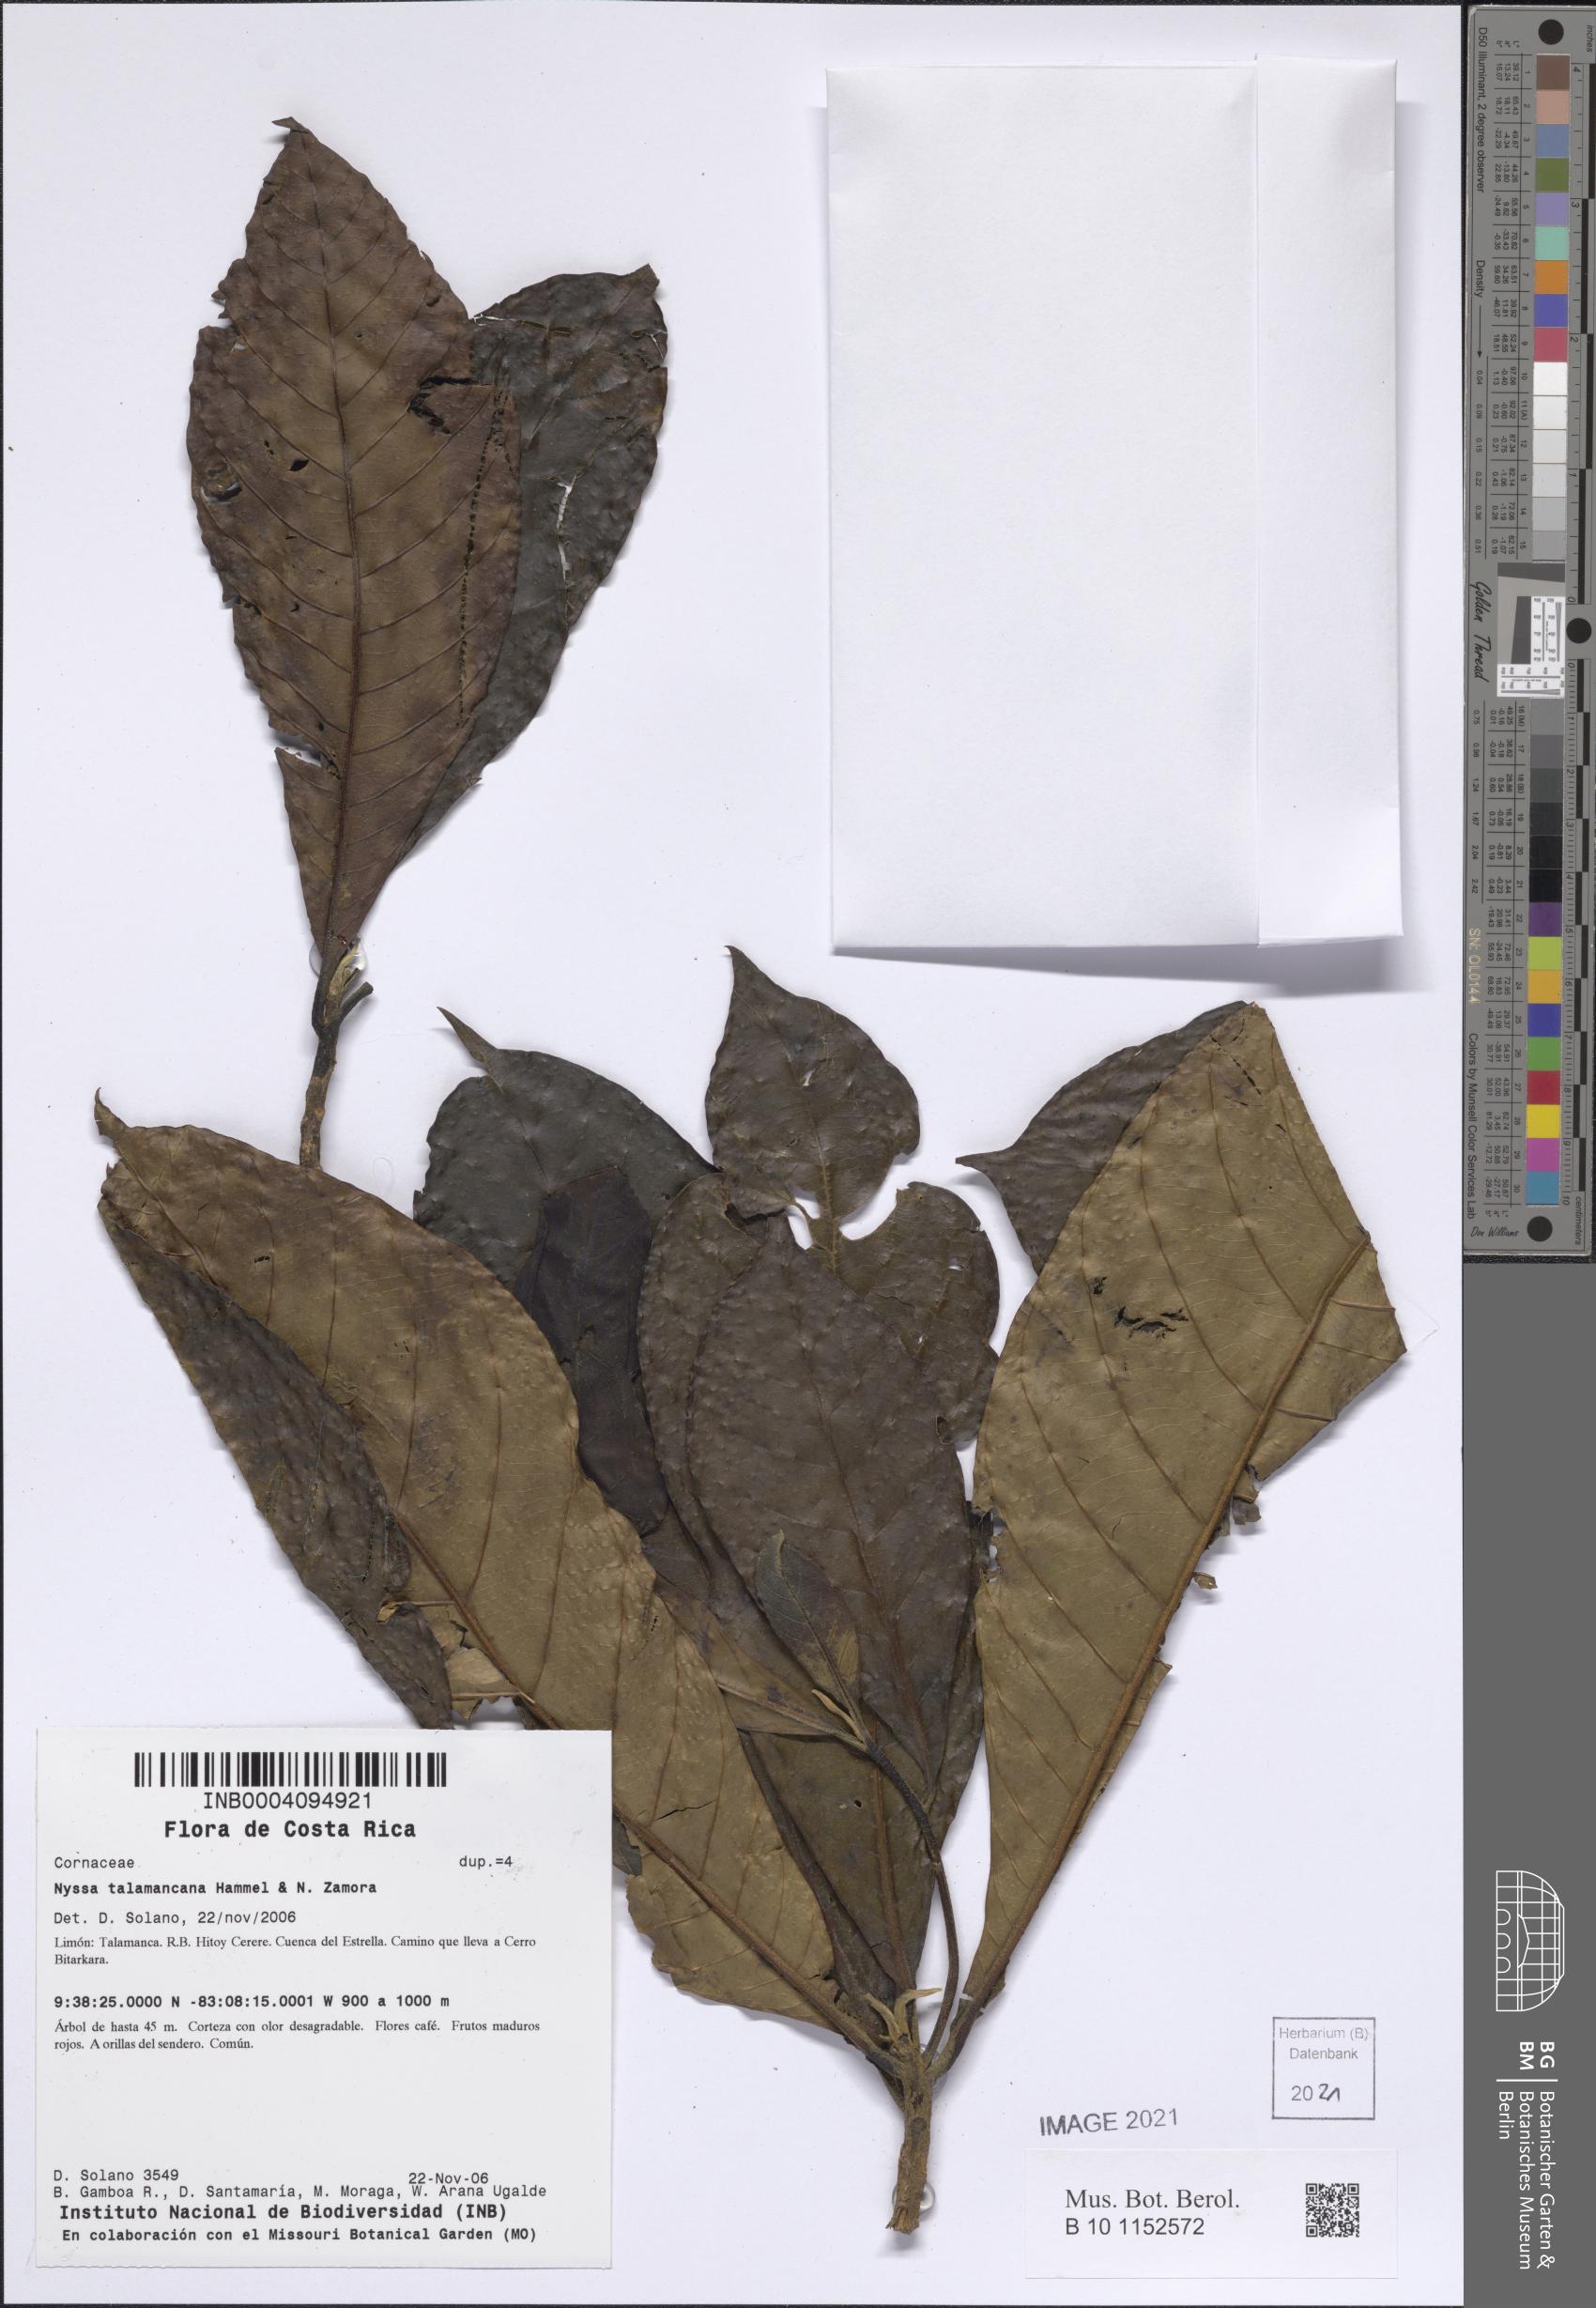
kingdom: Plantae
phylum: Tracheophyta
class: Magnoliopsida
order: Cornales
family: Nyssaceae
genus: Nyssa
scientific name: Nyssa talamancana
